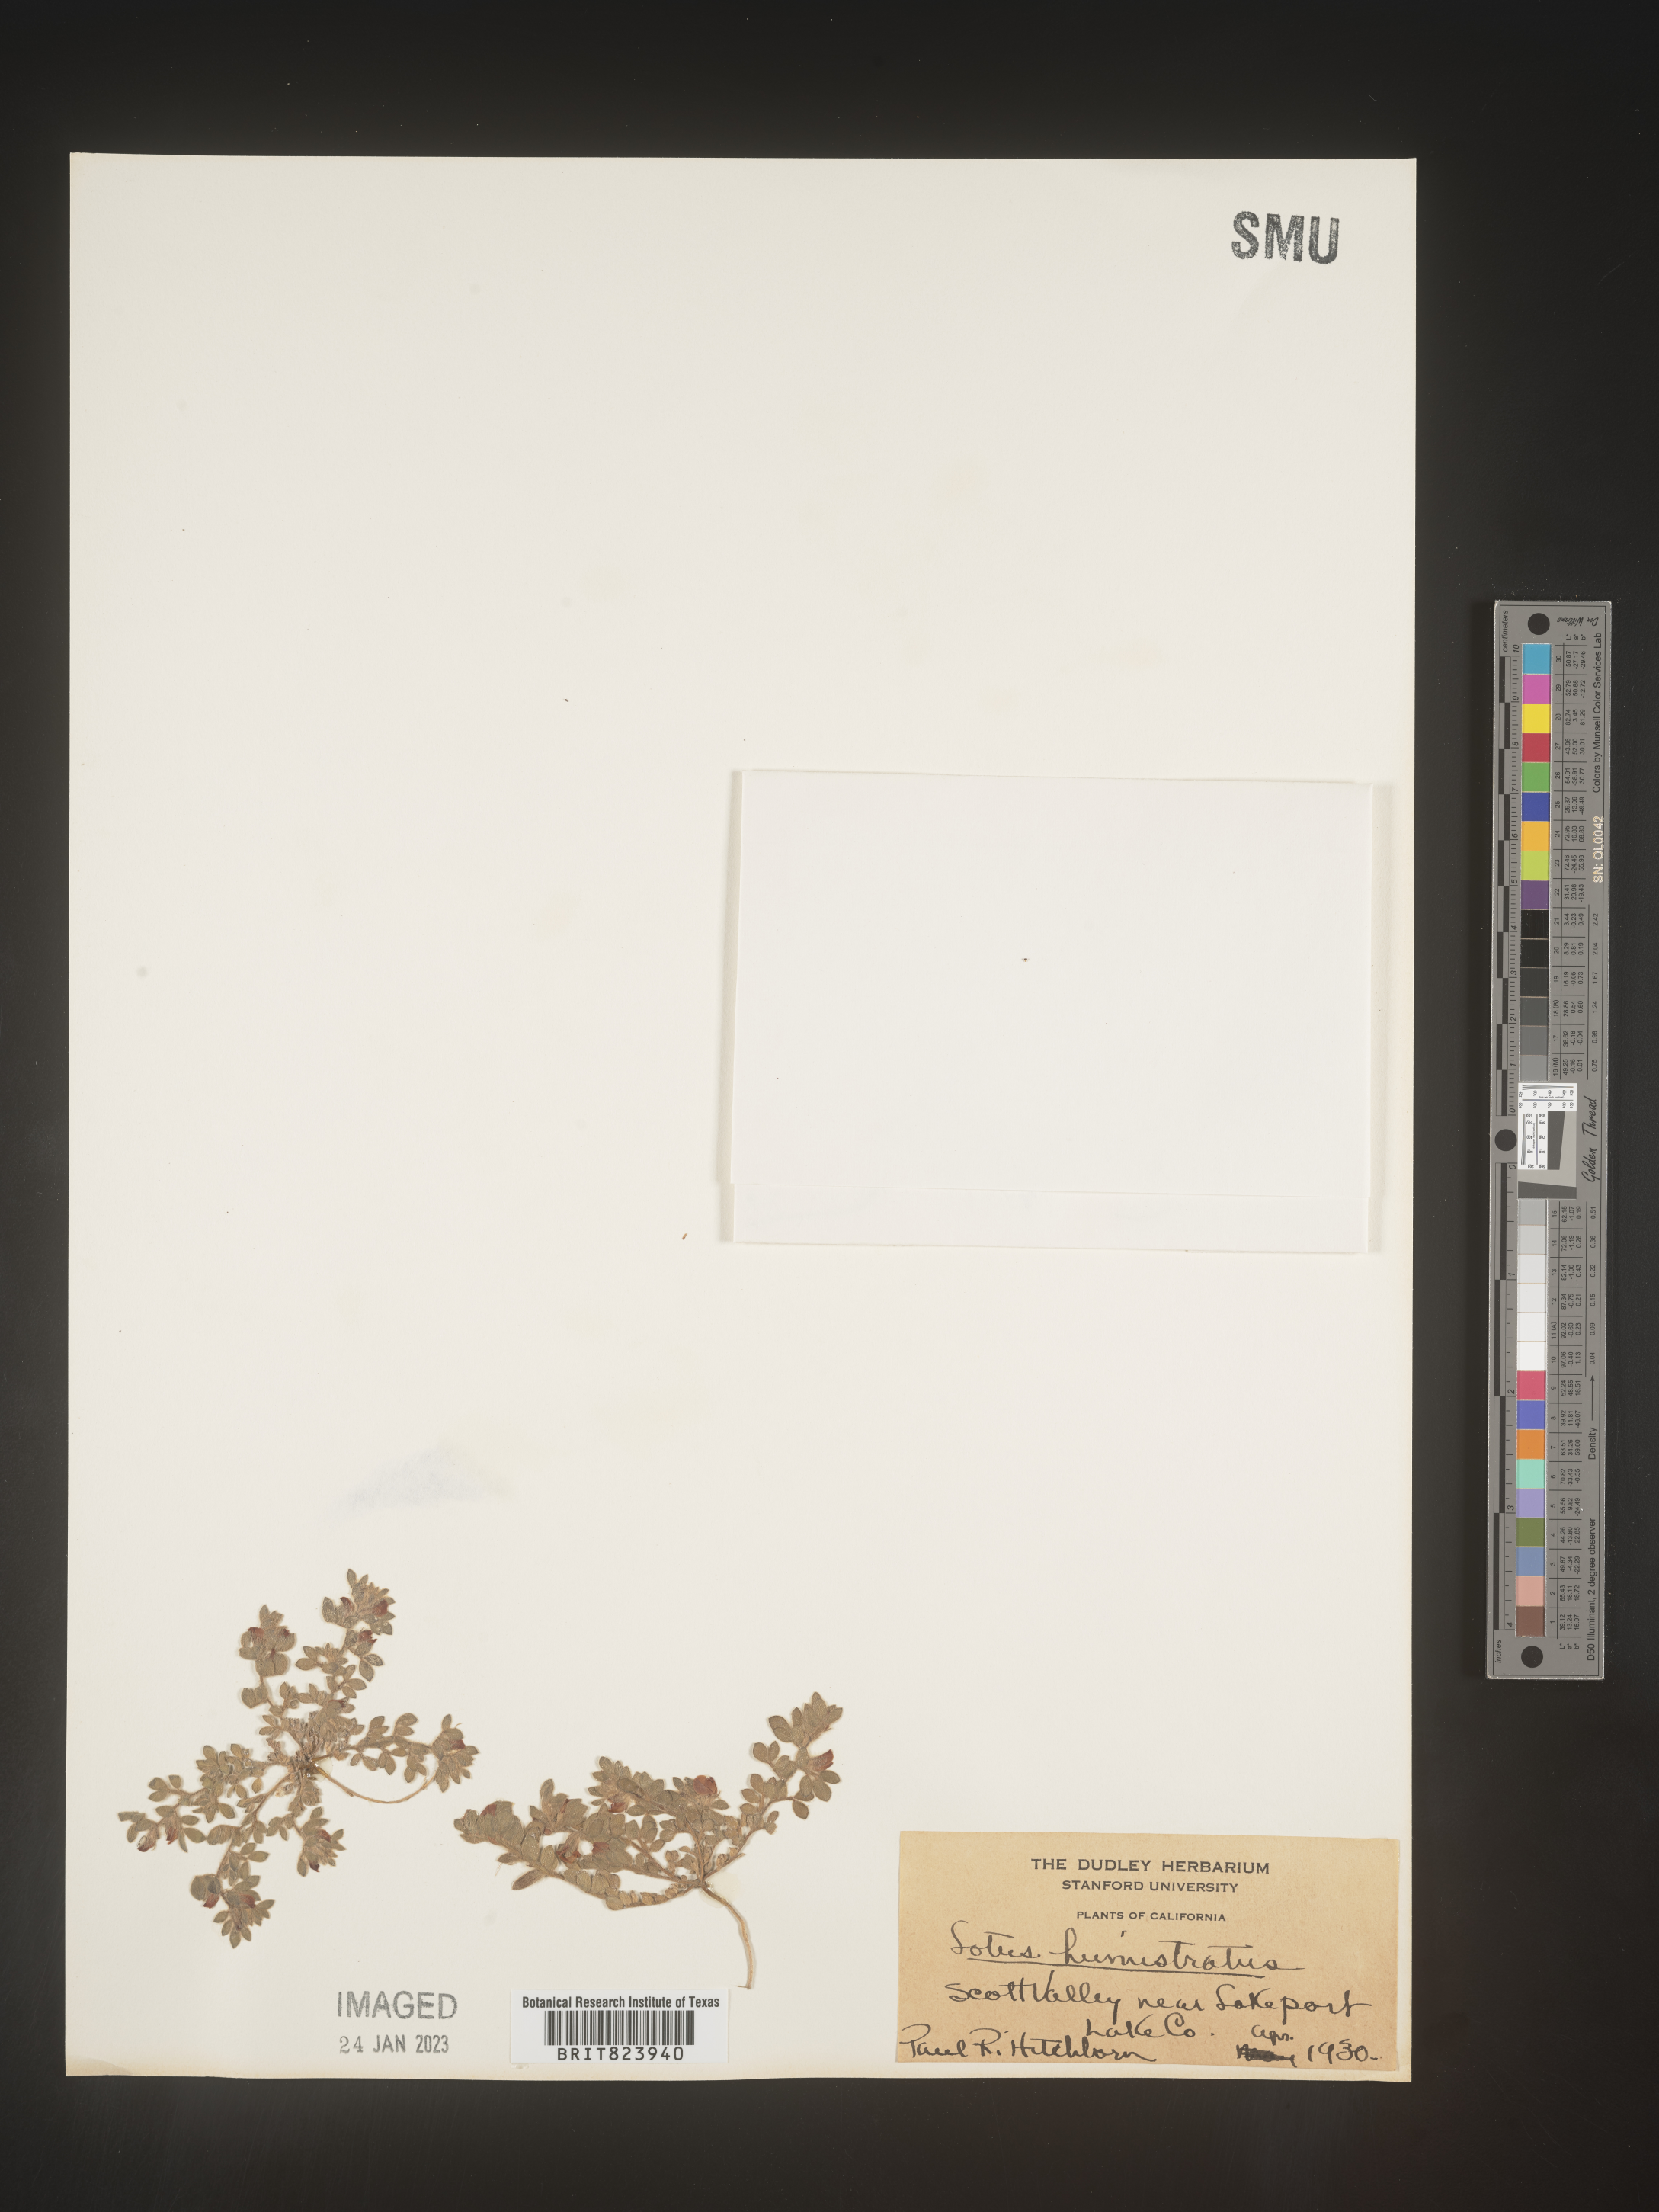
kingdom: Plantae
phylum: Tracheophyta
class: Magnoliopsida
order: Fabales
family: Fabaceae
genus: Acmispon
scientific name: Acmispon brachycarpus
